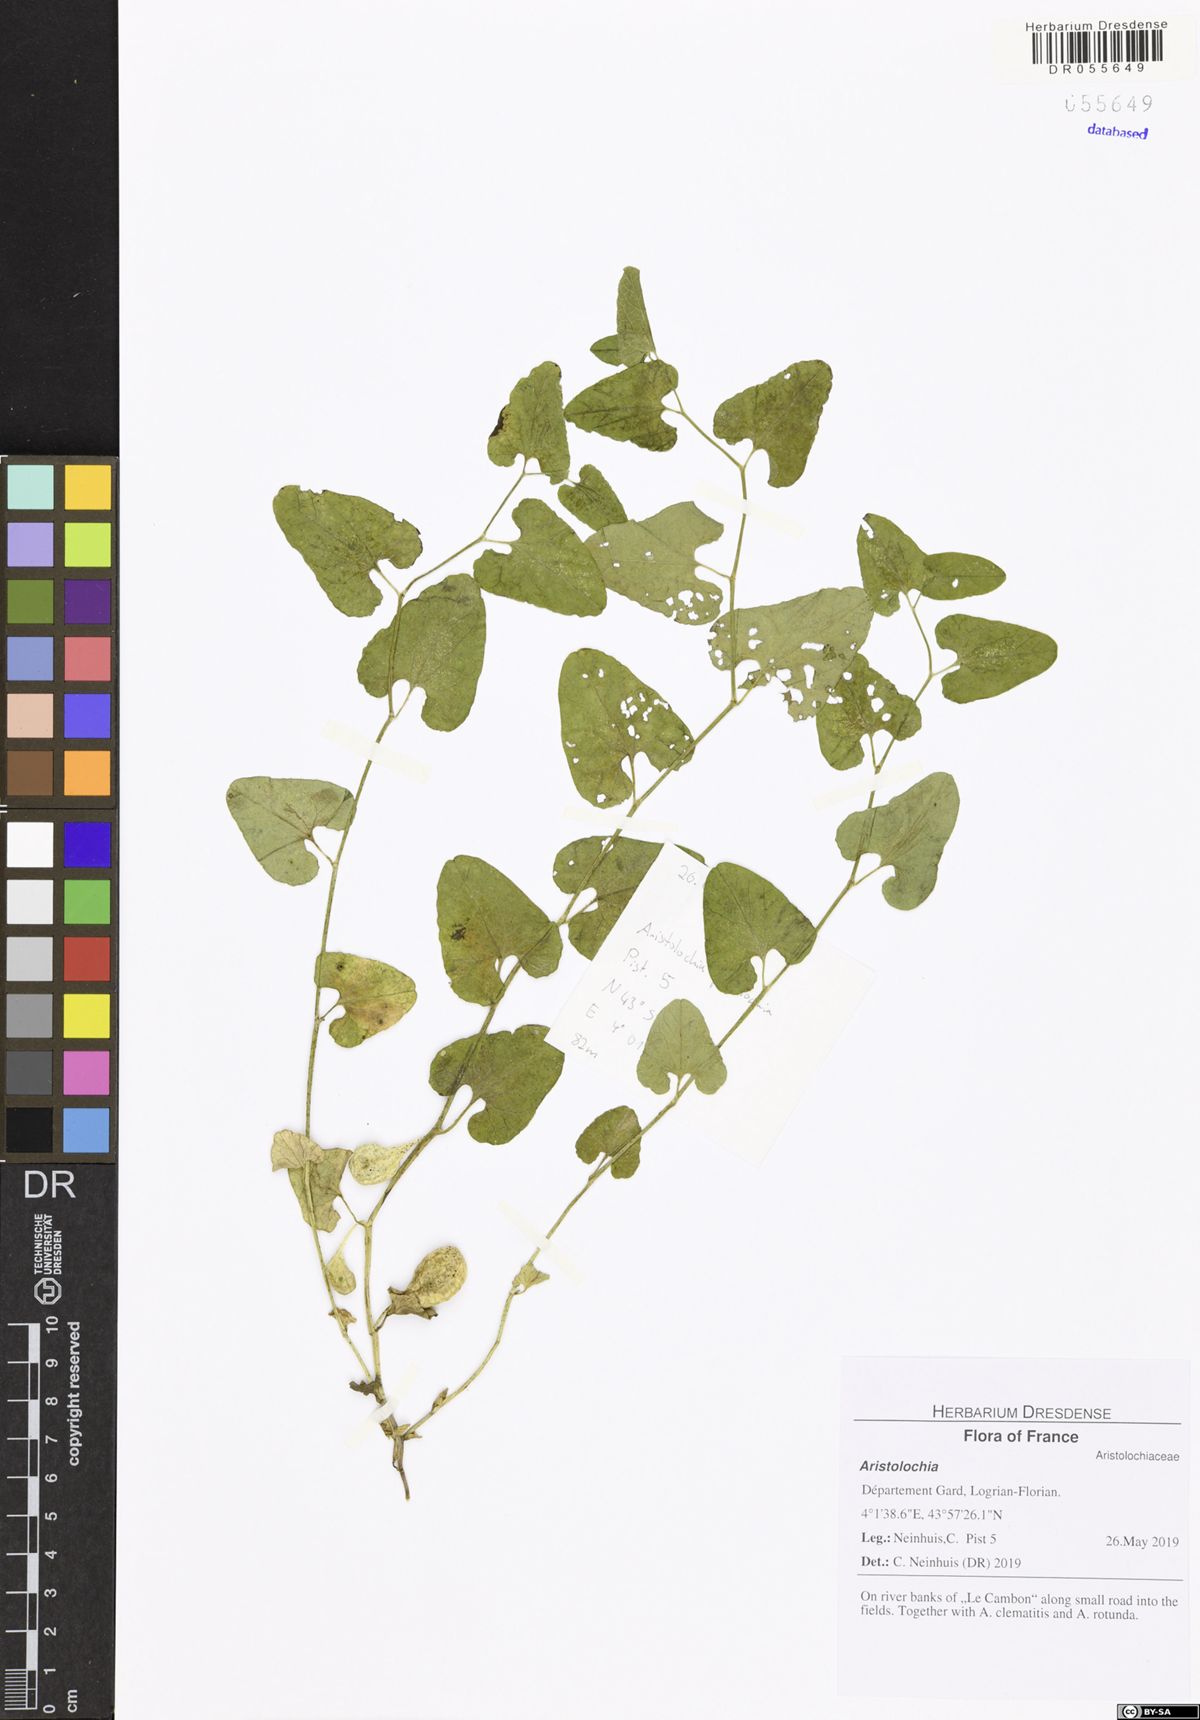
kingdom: Plantae
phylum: Tracheophyta
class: Magnoliopsida
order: Piperales
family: Aristolochiaceae
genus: Aristolochia
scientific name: Aristolochia
